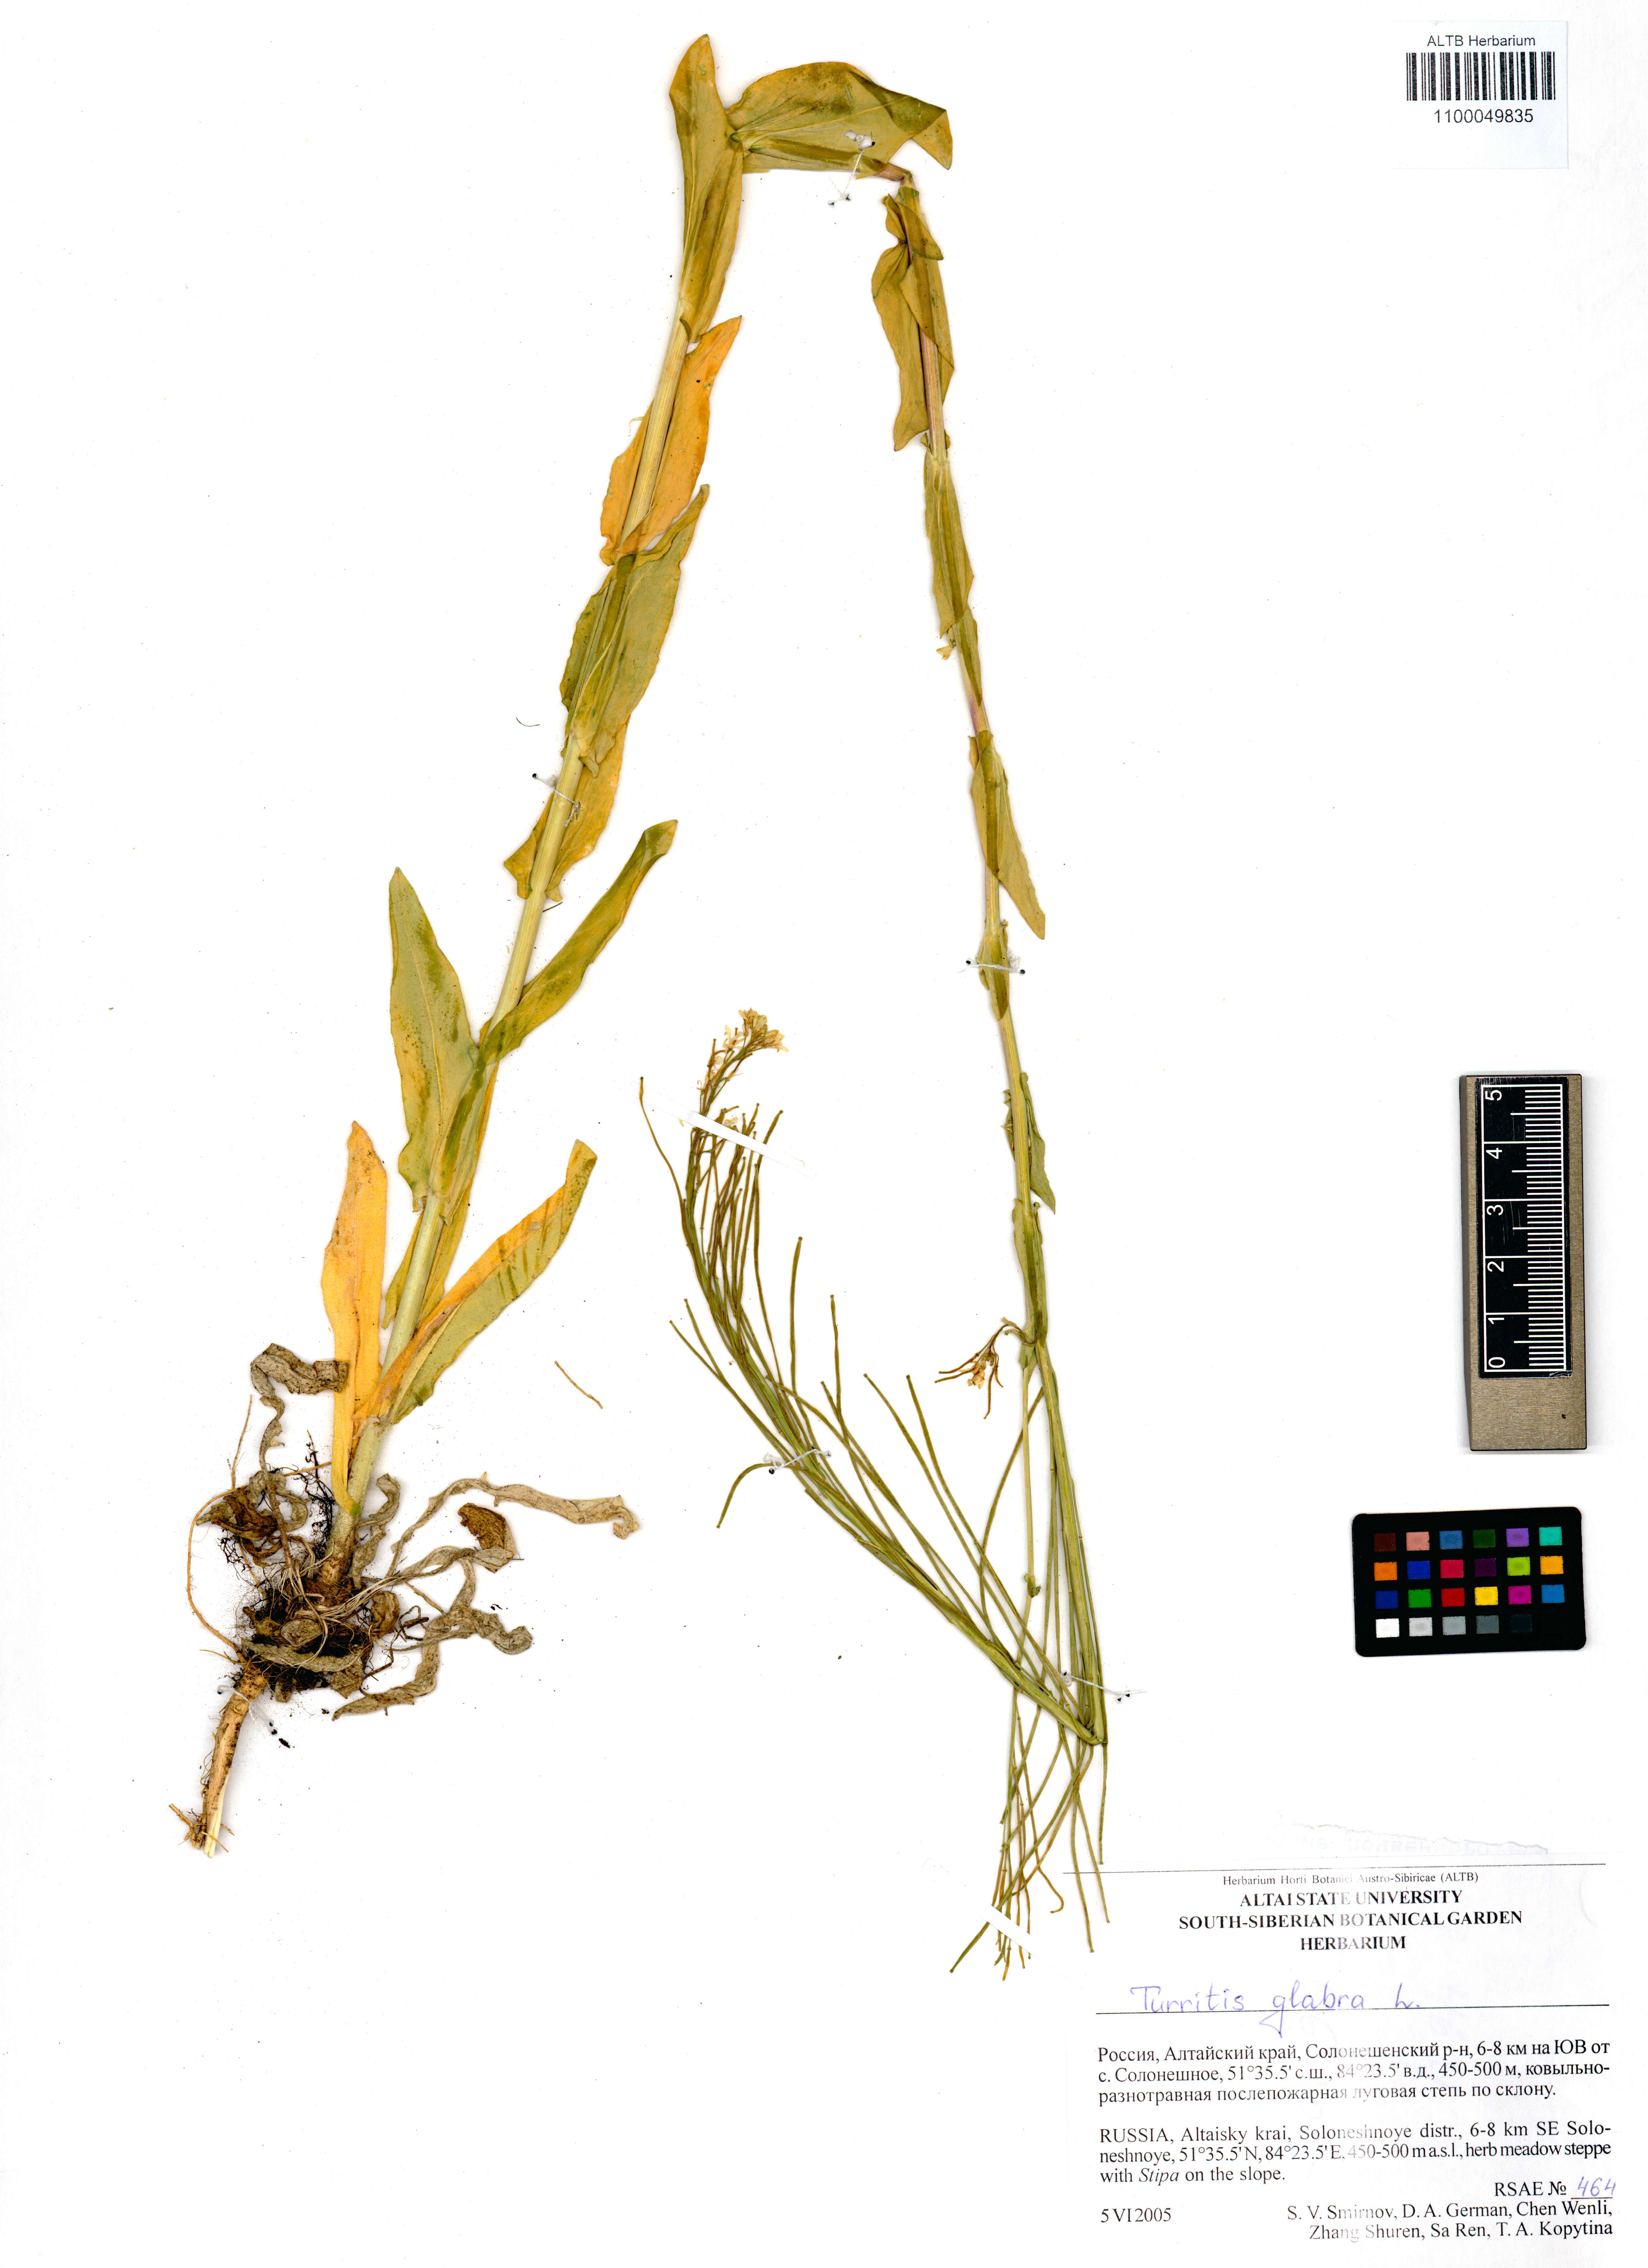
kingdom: Plantae
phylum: Tracheophyta
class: Magnoliopsida
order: Brassicales
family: Brassicaceae
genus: Turritis
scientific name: Turritis glabra
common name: Tower rockcress
